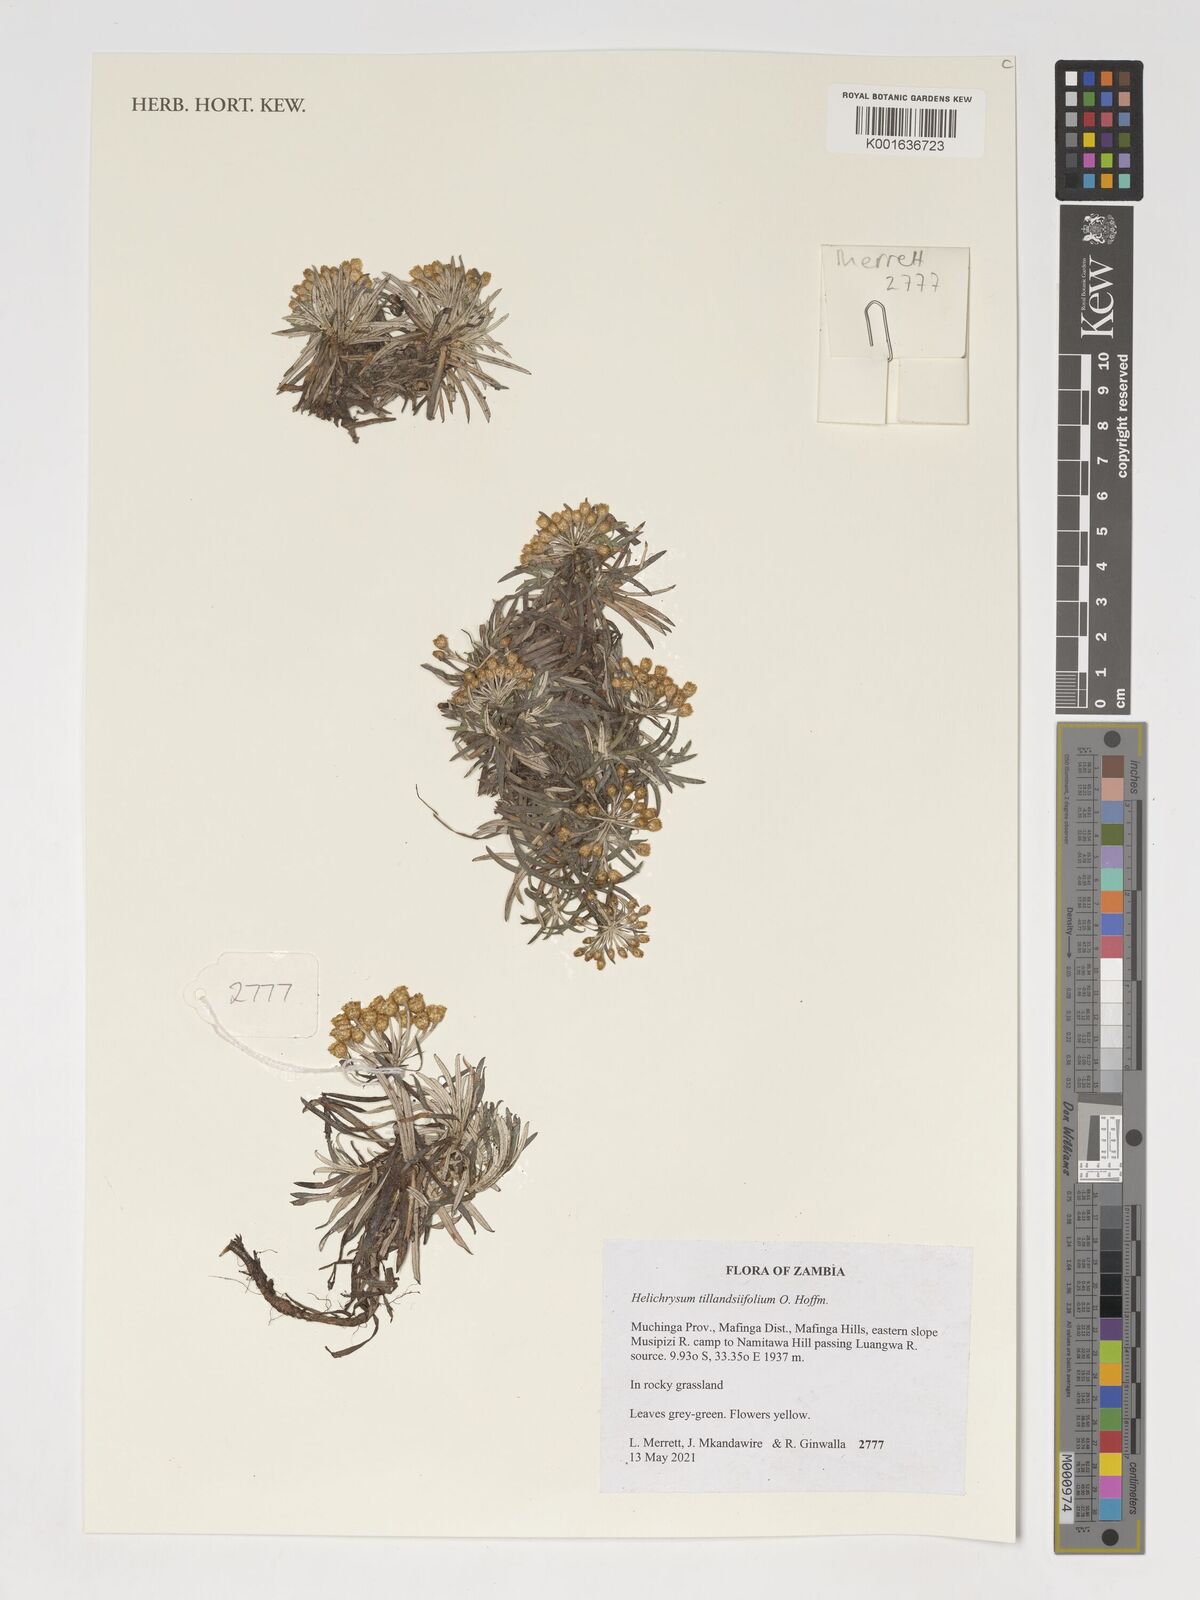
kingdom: Plantae
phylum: Tracheophyta
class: Magnoliopsida
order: Asterales
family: Asteraceae
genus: Helichrysum
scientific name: Helichrysum tillandsiifolium
